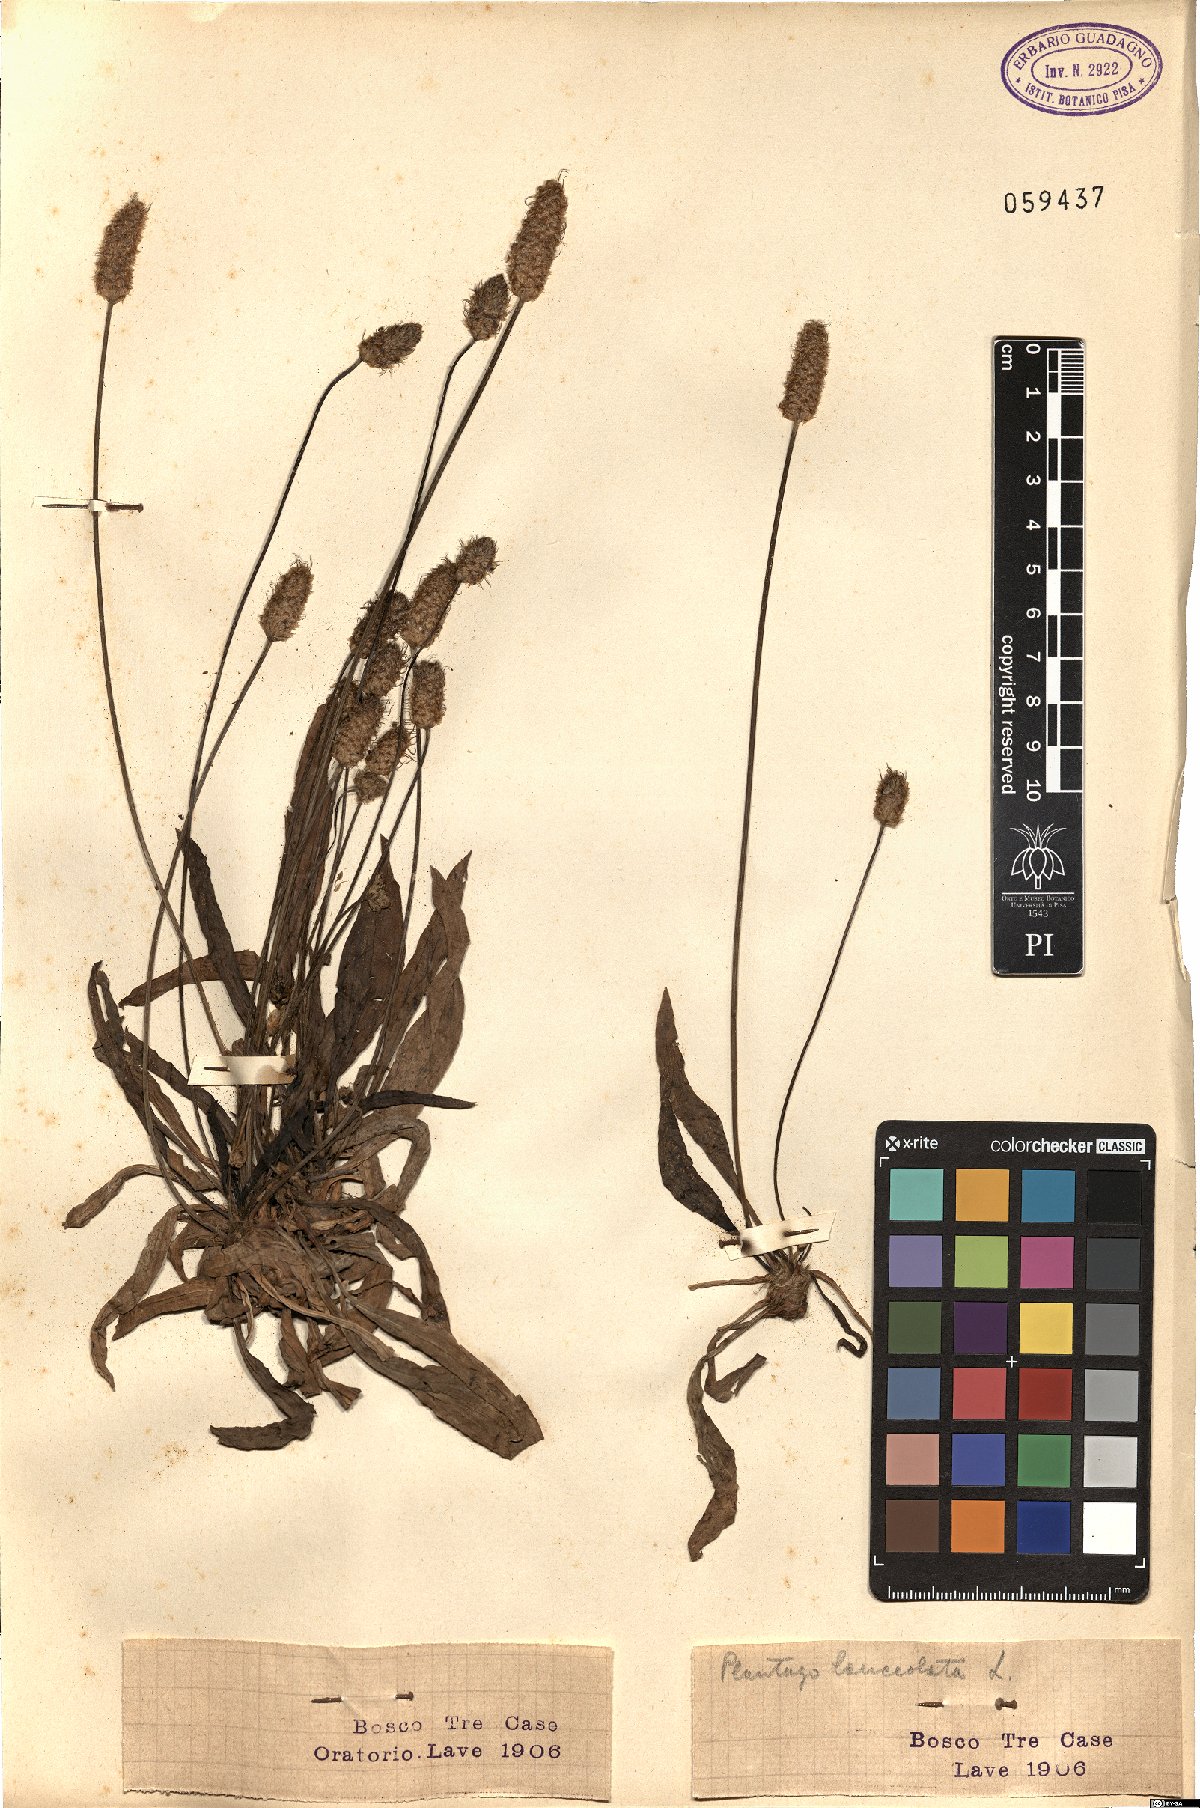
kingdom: Plantae
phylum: Tracheophyta
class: Magnoliopsida
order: Lamiales
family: Plantaginaceae
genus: Plantago
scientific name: Plantago lanceolata
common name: Ribwort plantain
